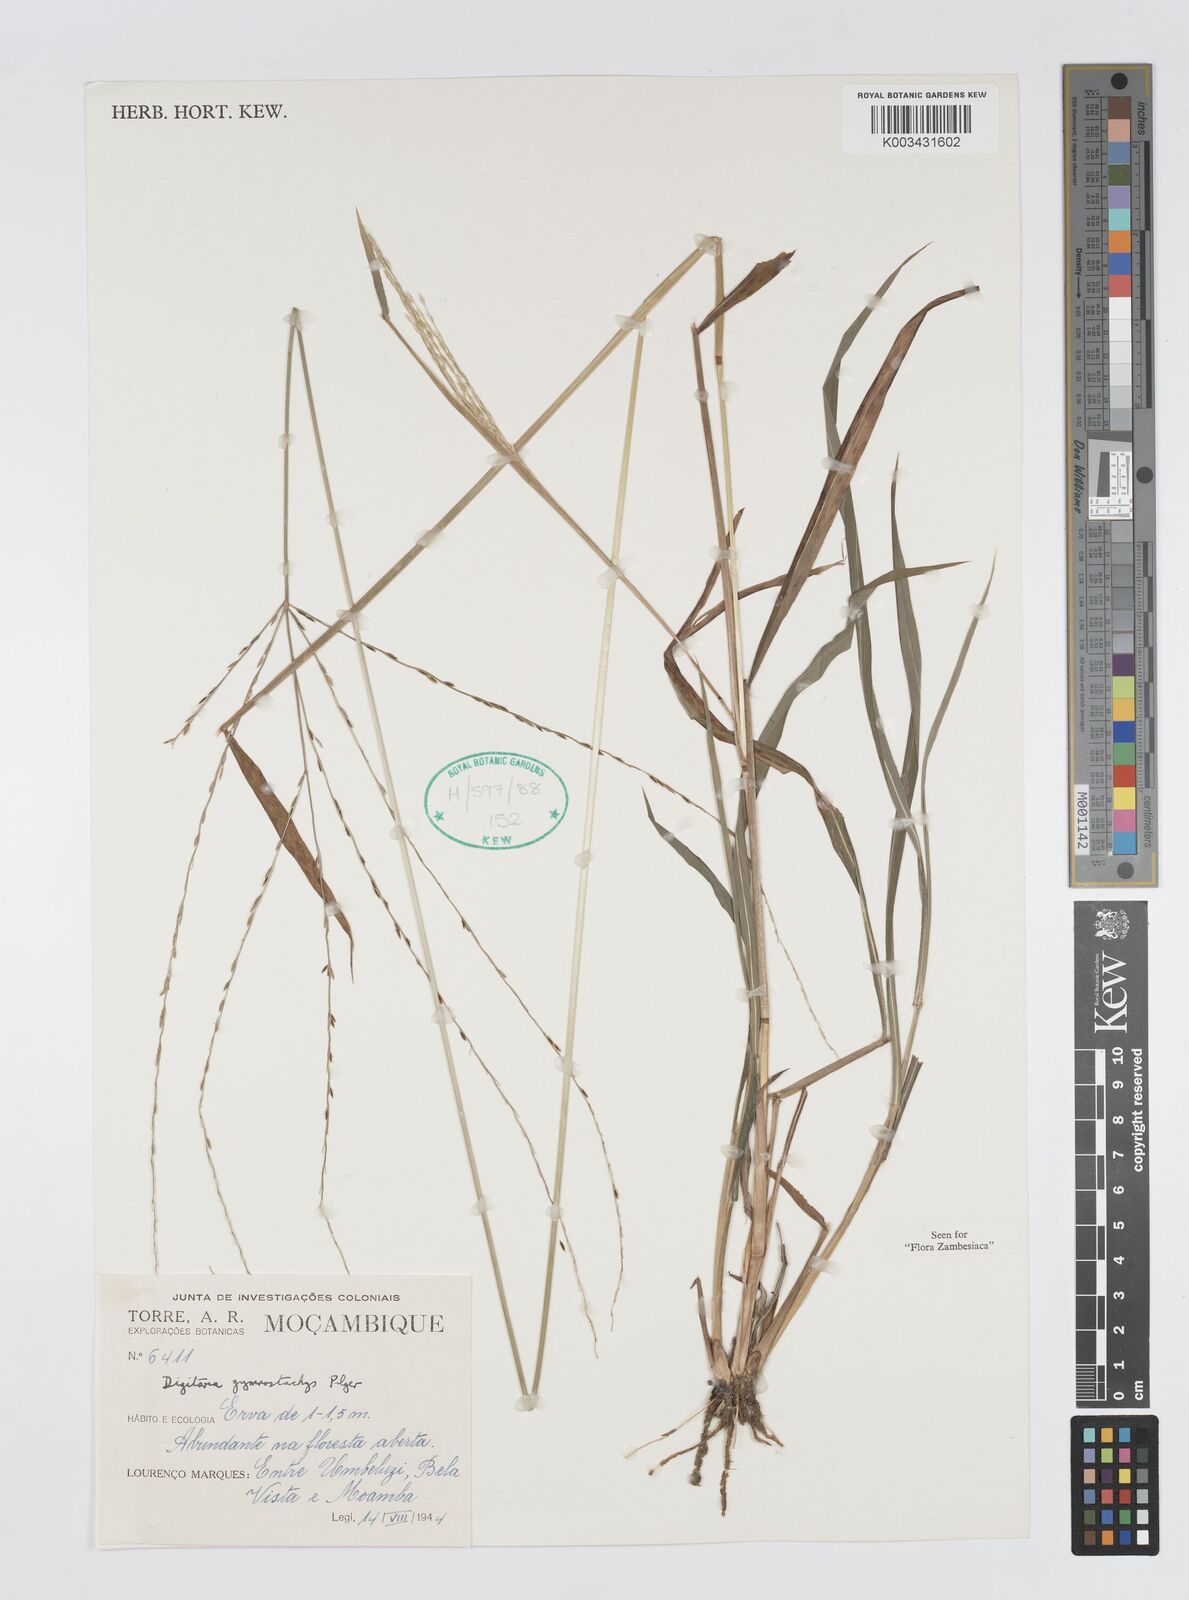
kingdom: Plantae
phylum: Tracheophyta
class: Liliopsida
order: Poales
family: Poaceae
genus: Digitaria
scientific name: Digitaria gymnostachys
